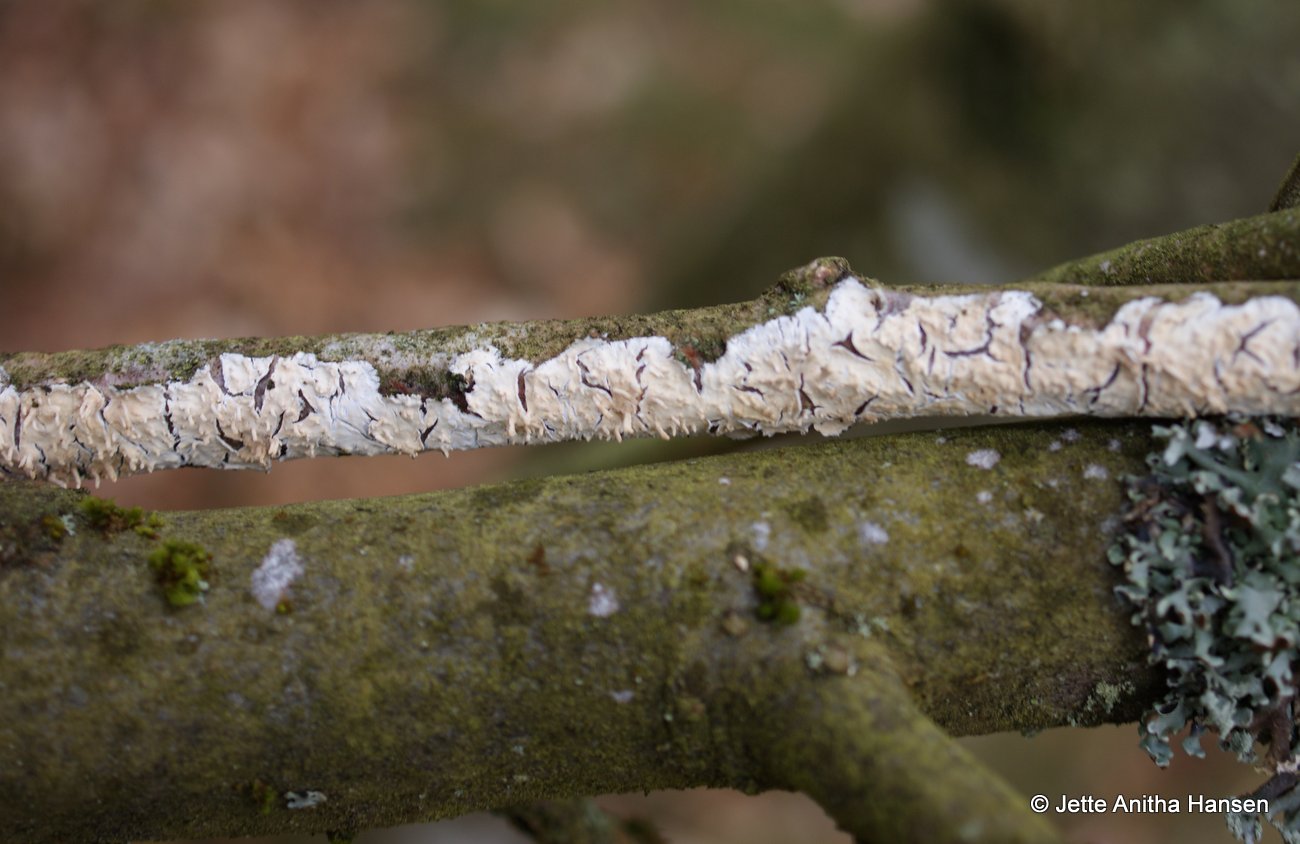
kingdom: Fungi
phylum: Basidiomycota
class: Agaricomycetes
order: Agaricales
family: Physalacriaceae
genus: Cylindrobasidium
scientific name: Cylindrobasidium evolvens
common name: sprækkehinde
